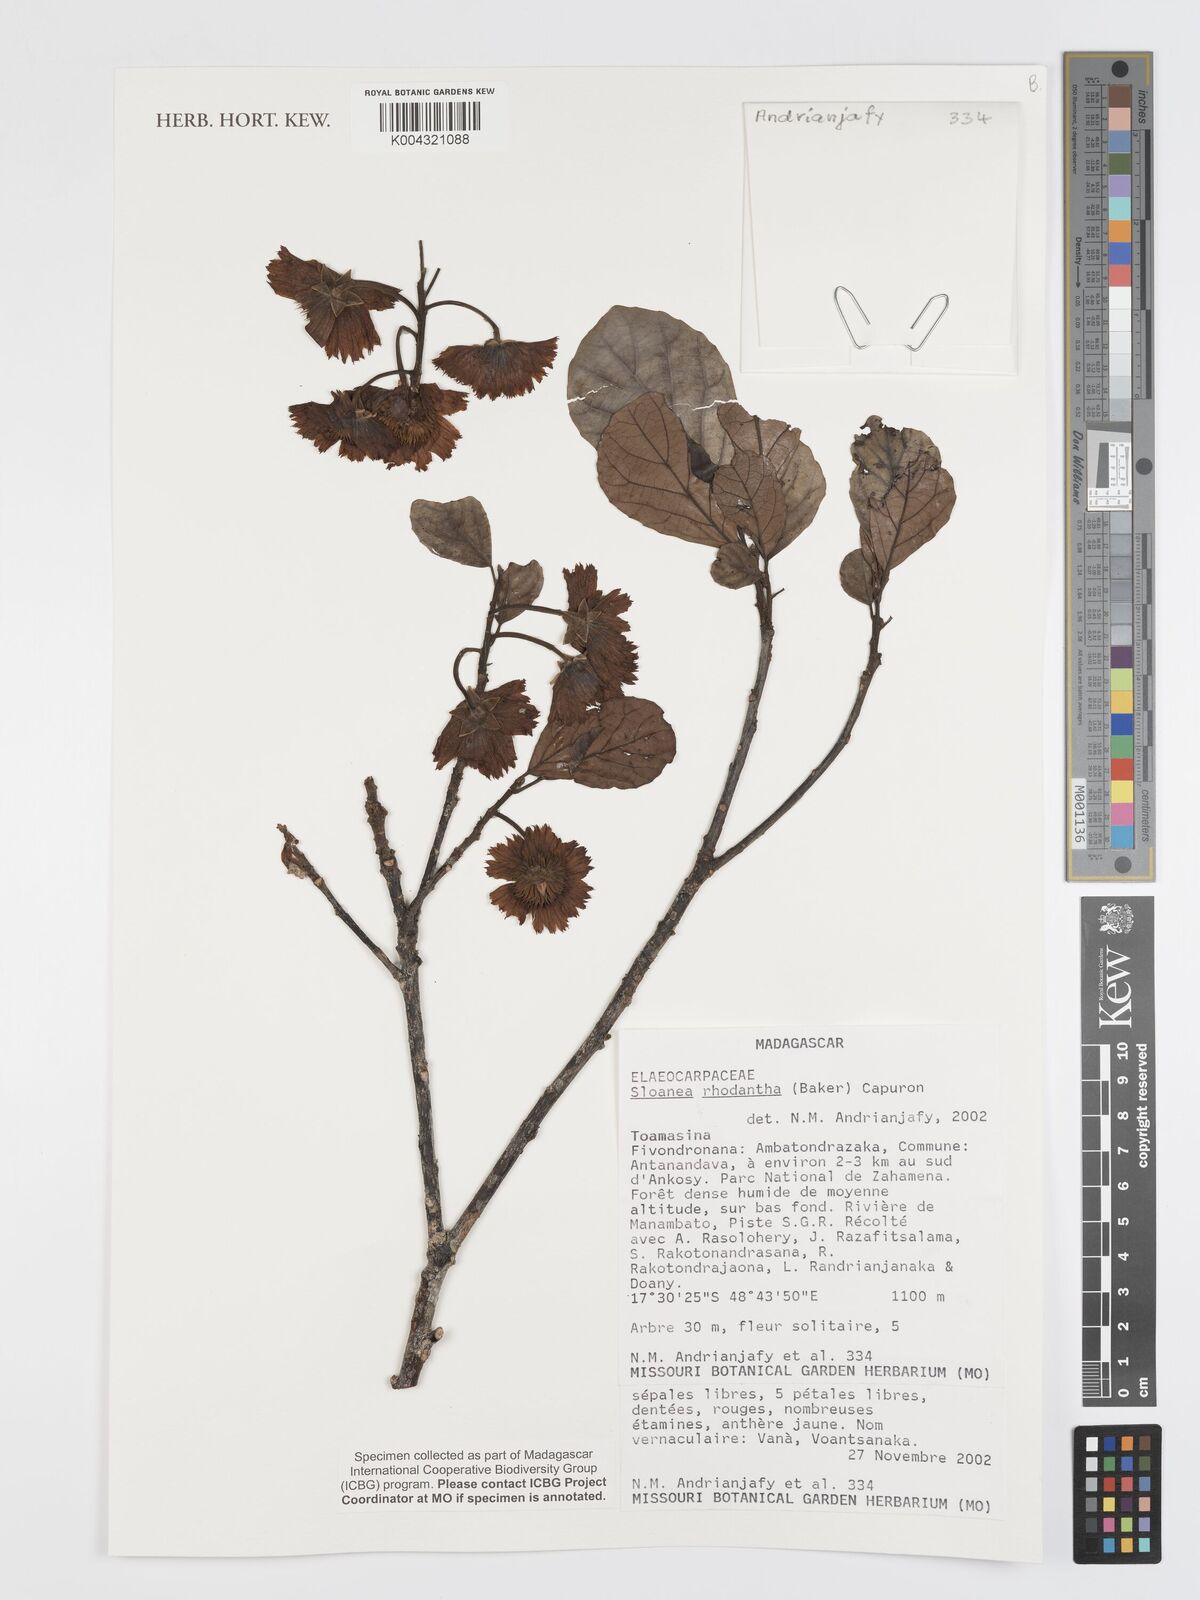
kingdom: Plantae
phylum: Tracheophyta
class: Magnoliopsida
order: Oxalidales
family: Elaeocarpaceae
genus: Sloanea
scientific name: Sloanea rhodantha
